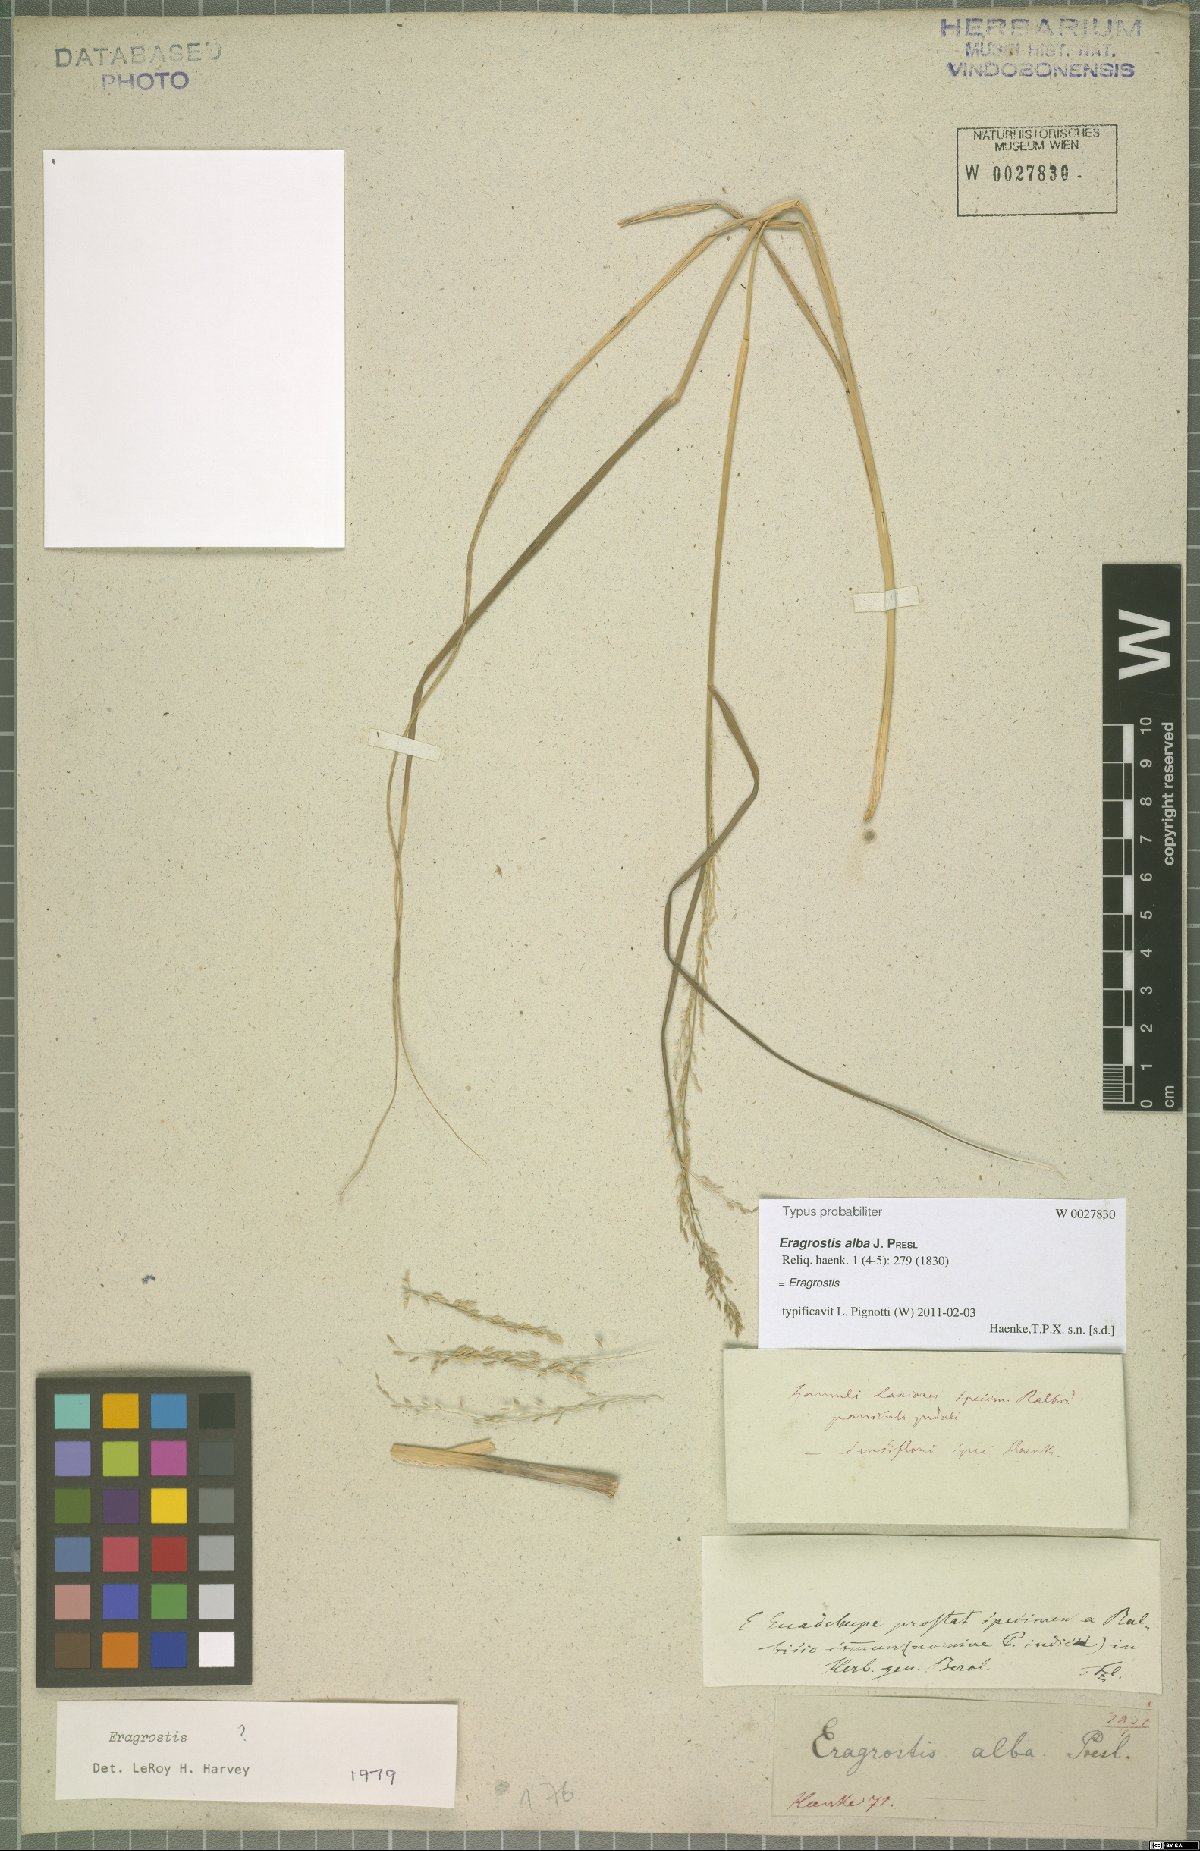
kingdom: Plantae
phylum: Tracheophyta
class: Liliopsida
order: Poales
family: Poaceae
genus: Eragrostis
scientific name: Eragrostis
